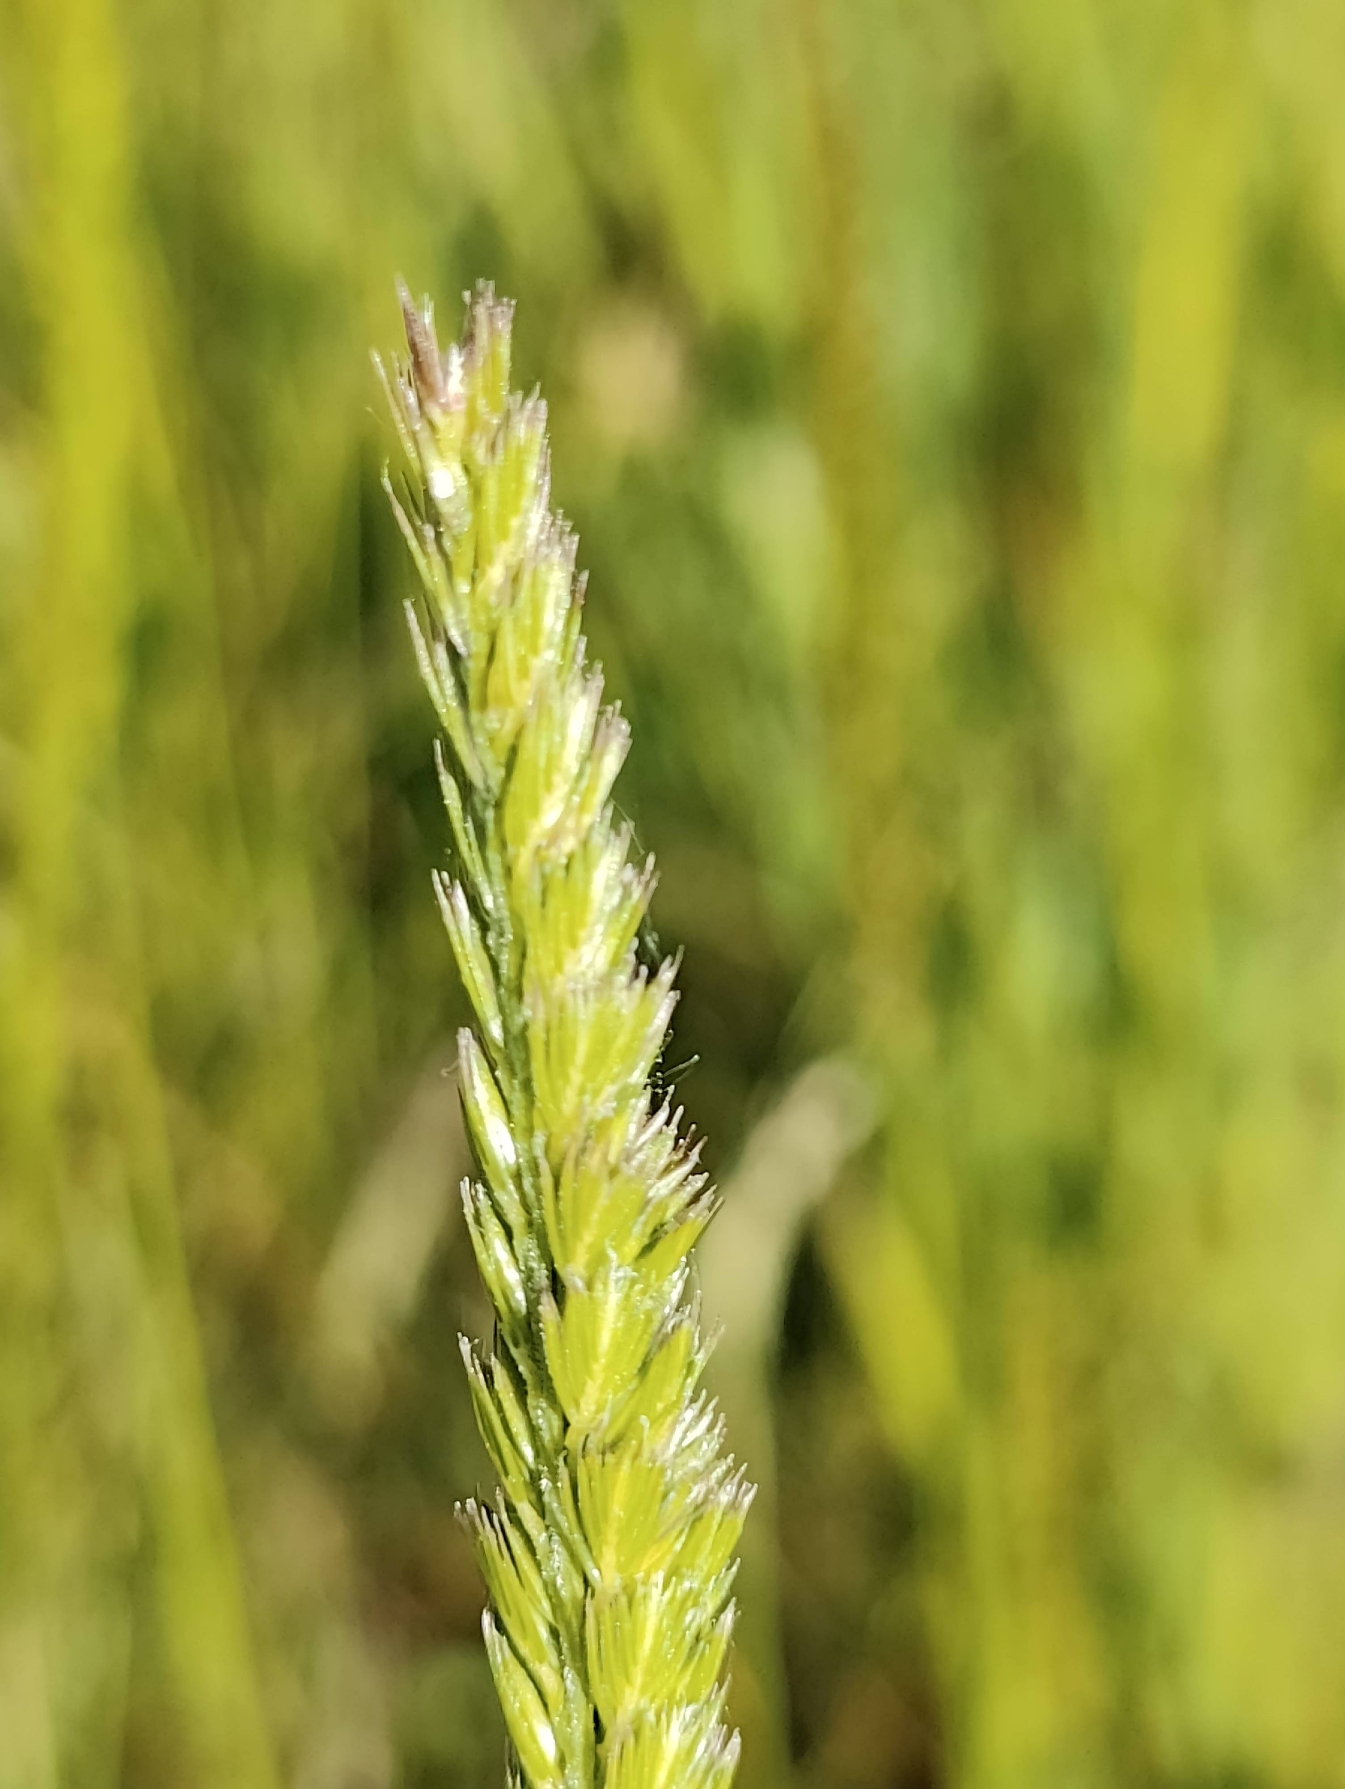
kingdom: Plantae
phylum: Tracheophyta
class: Liliopsida
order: Poales
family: Poaceae
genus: Cynosurus
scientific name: Cynosurus cristatus
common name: Kamgræs
